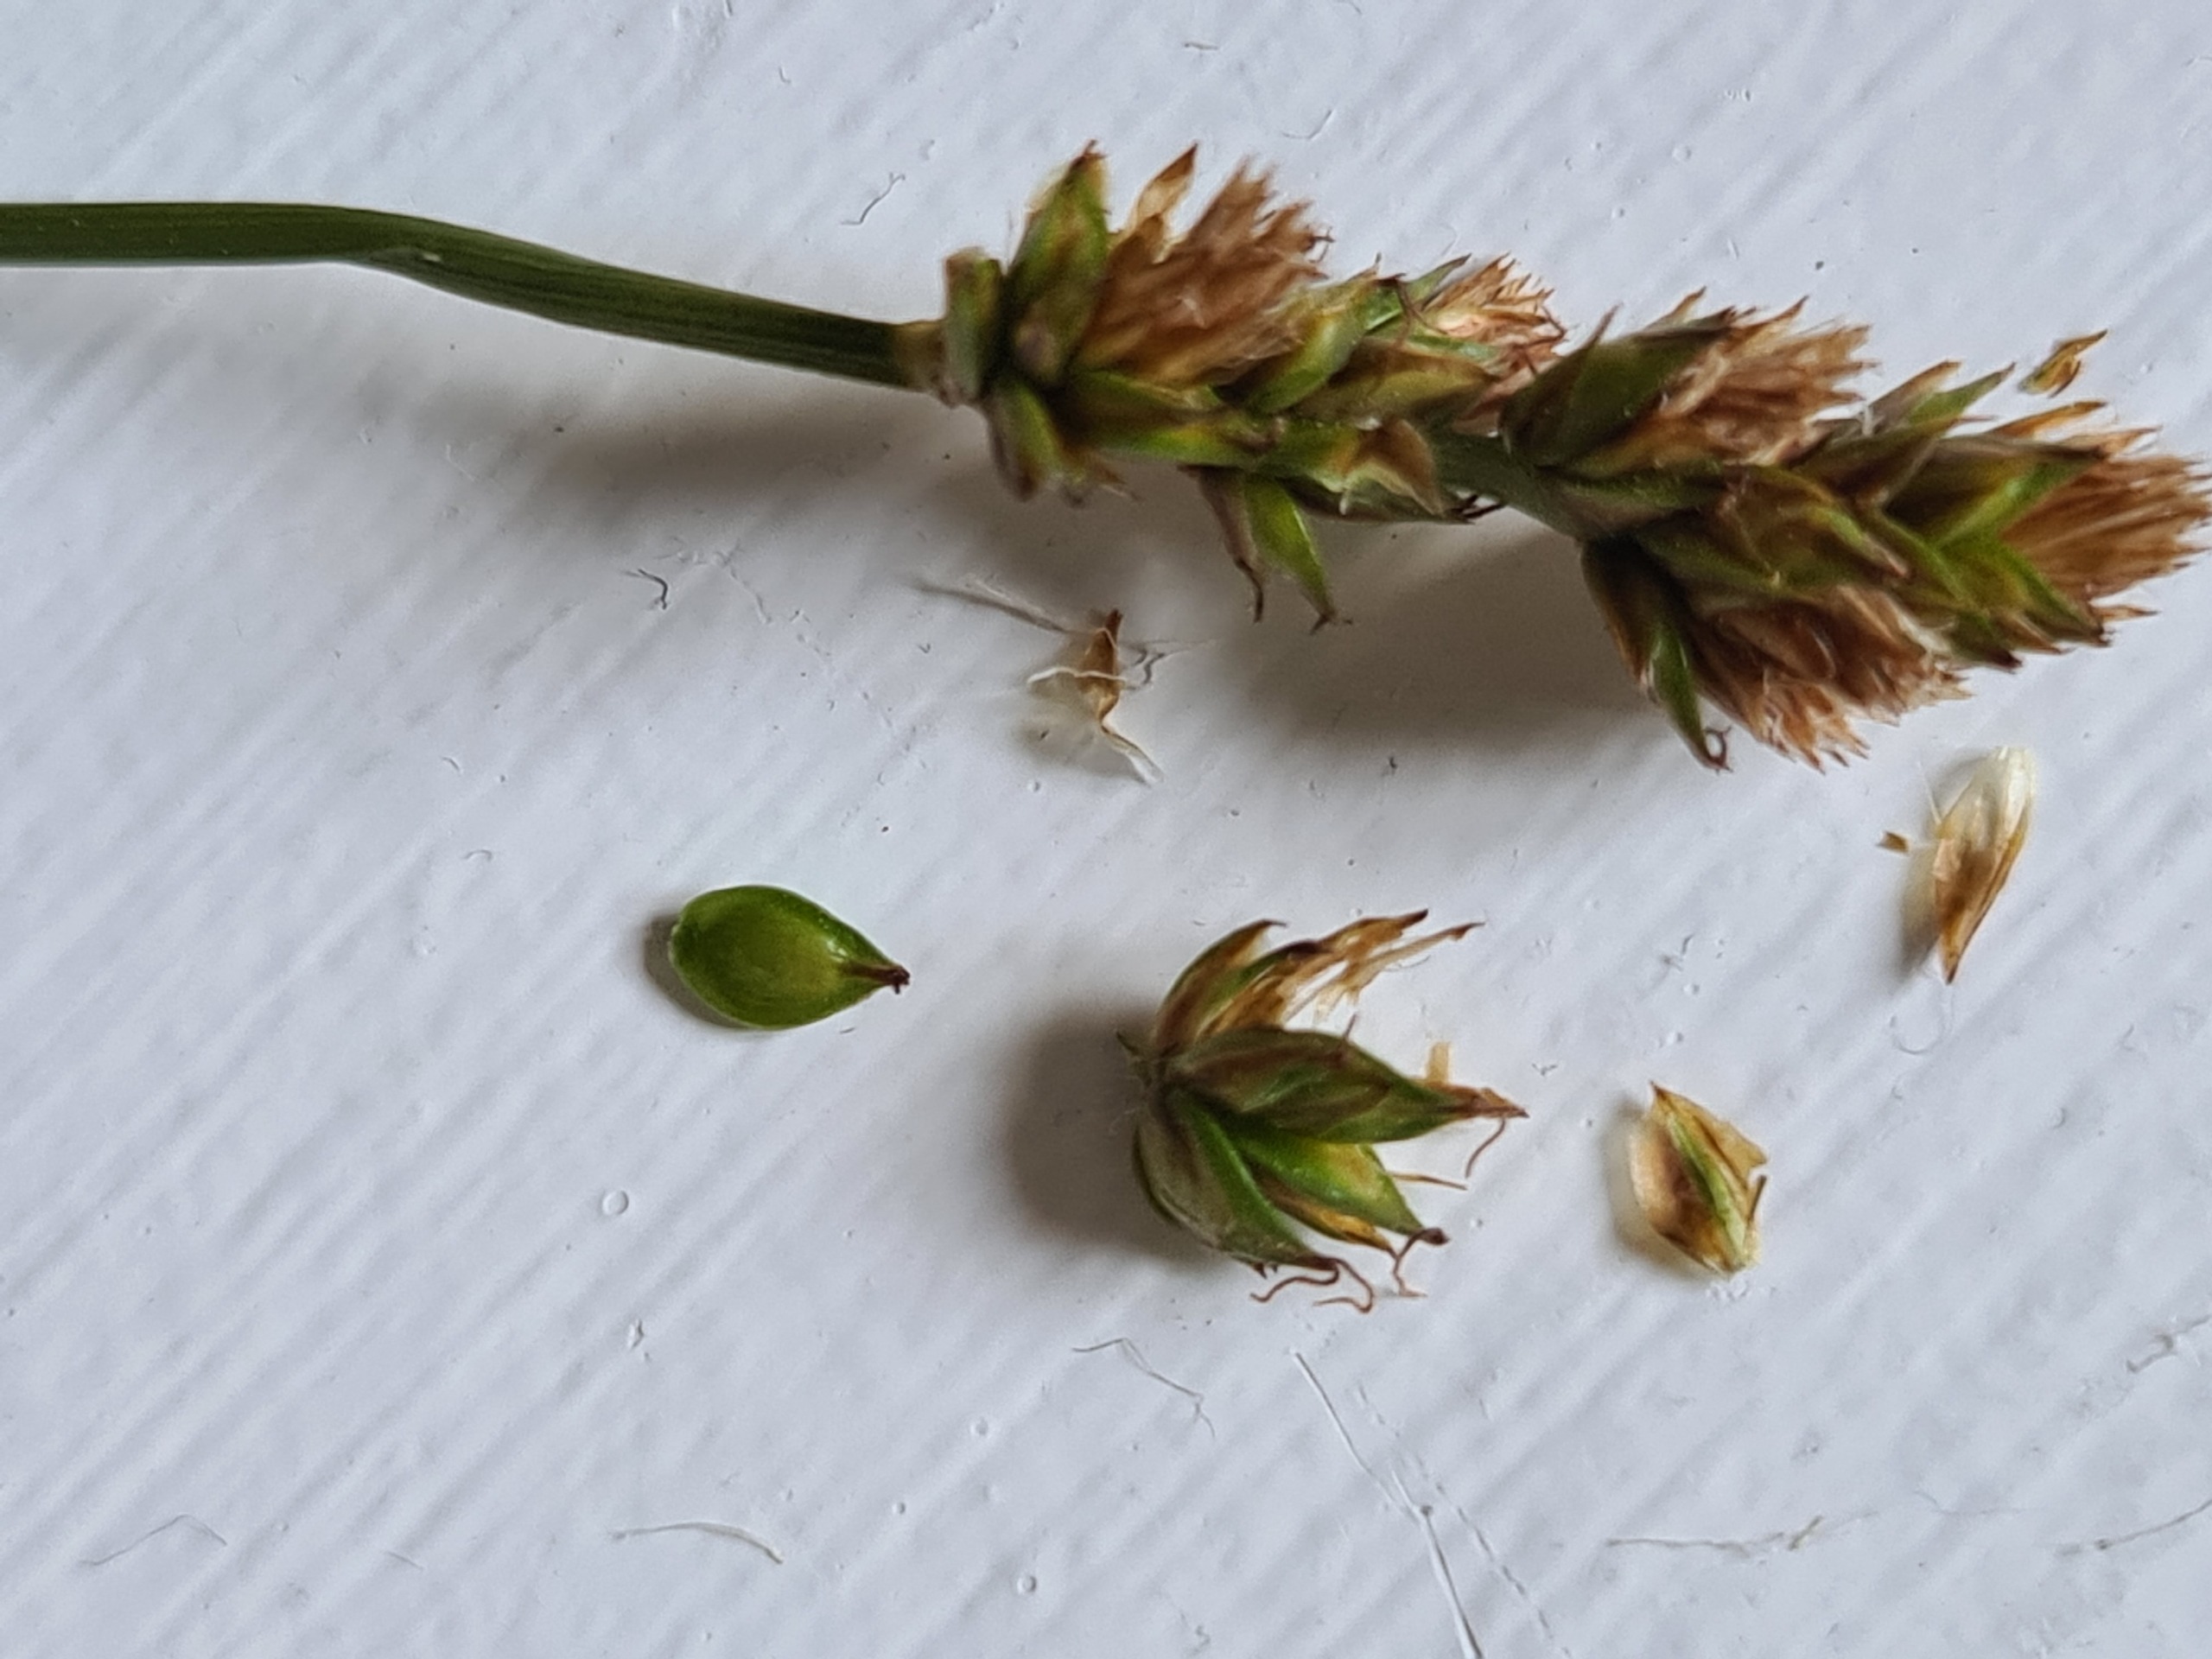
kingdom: Plantae
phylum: Tracheophyta
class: Liliopsida
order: Poales
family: Cyperaceae
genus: Carex
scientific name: Carex pairae
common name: Pigget star
